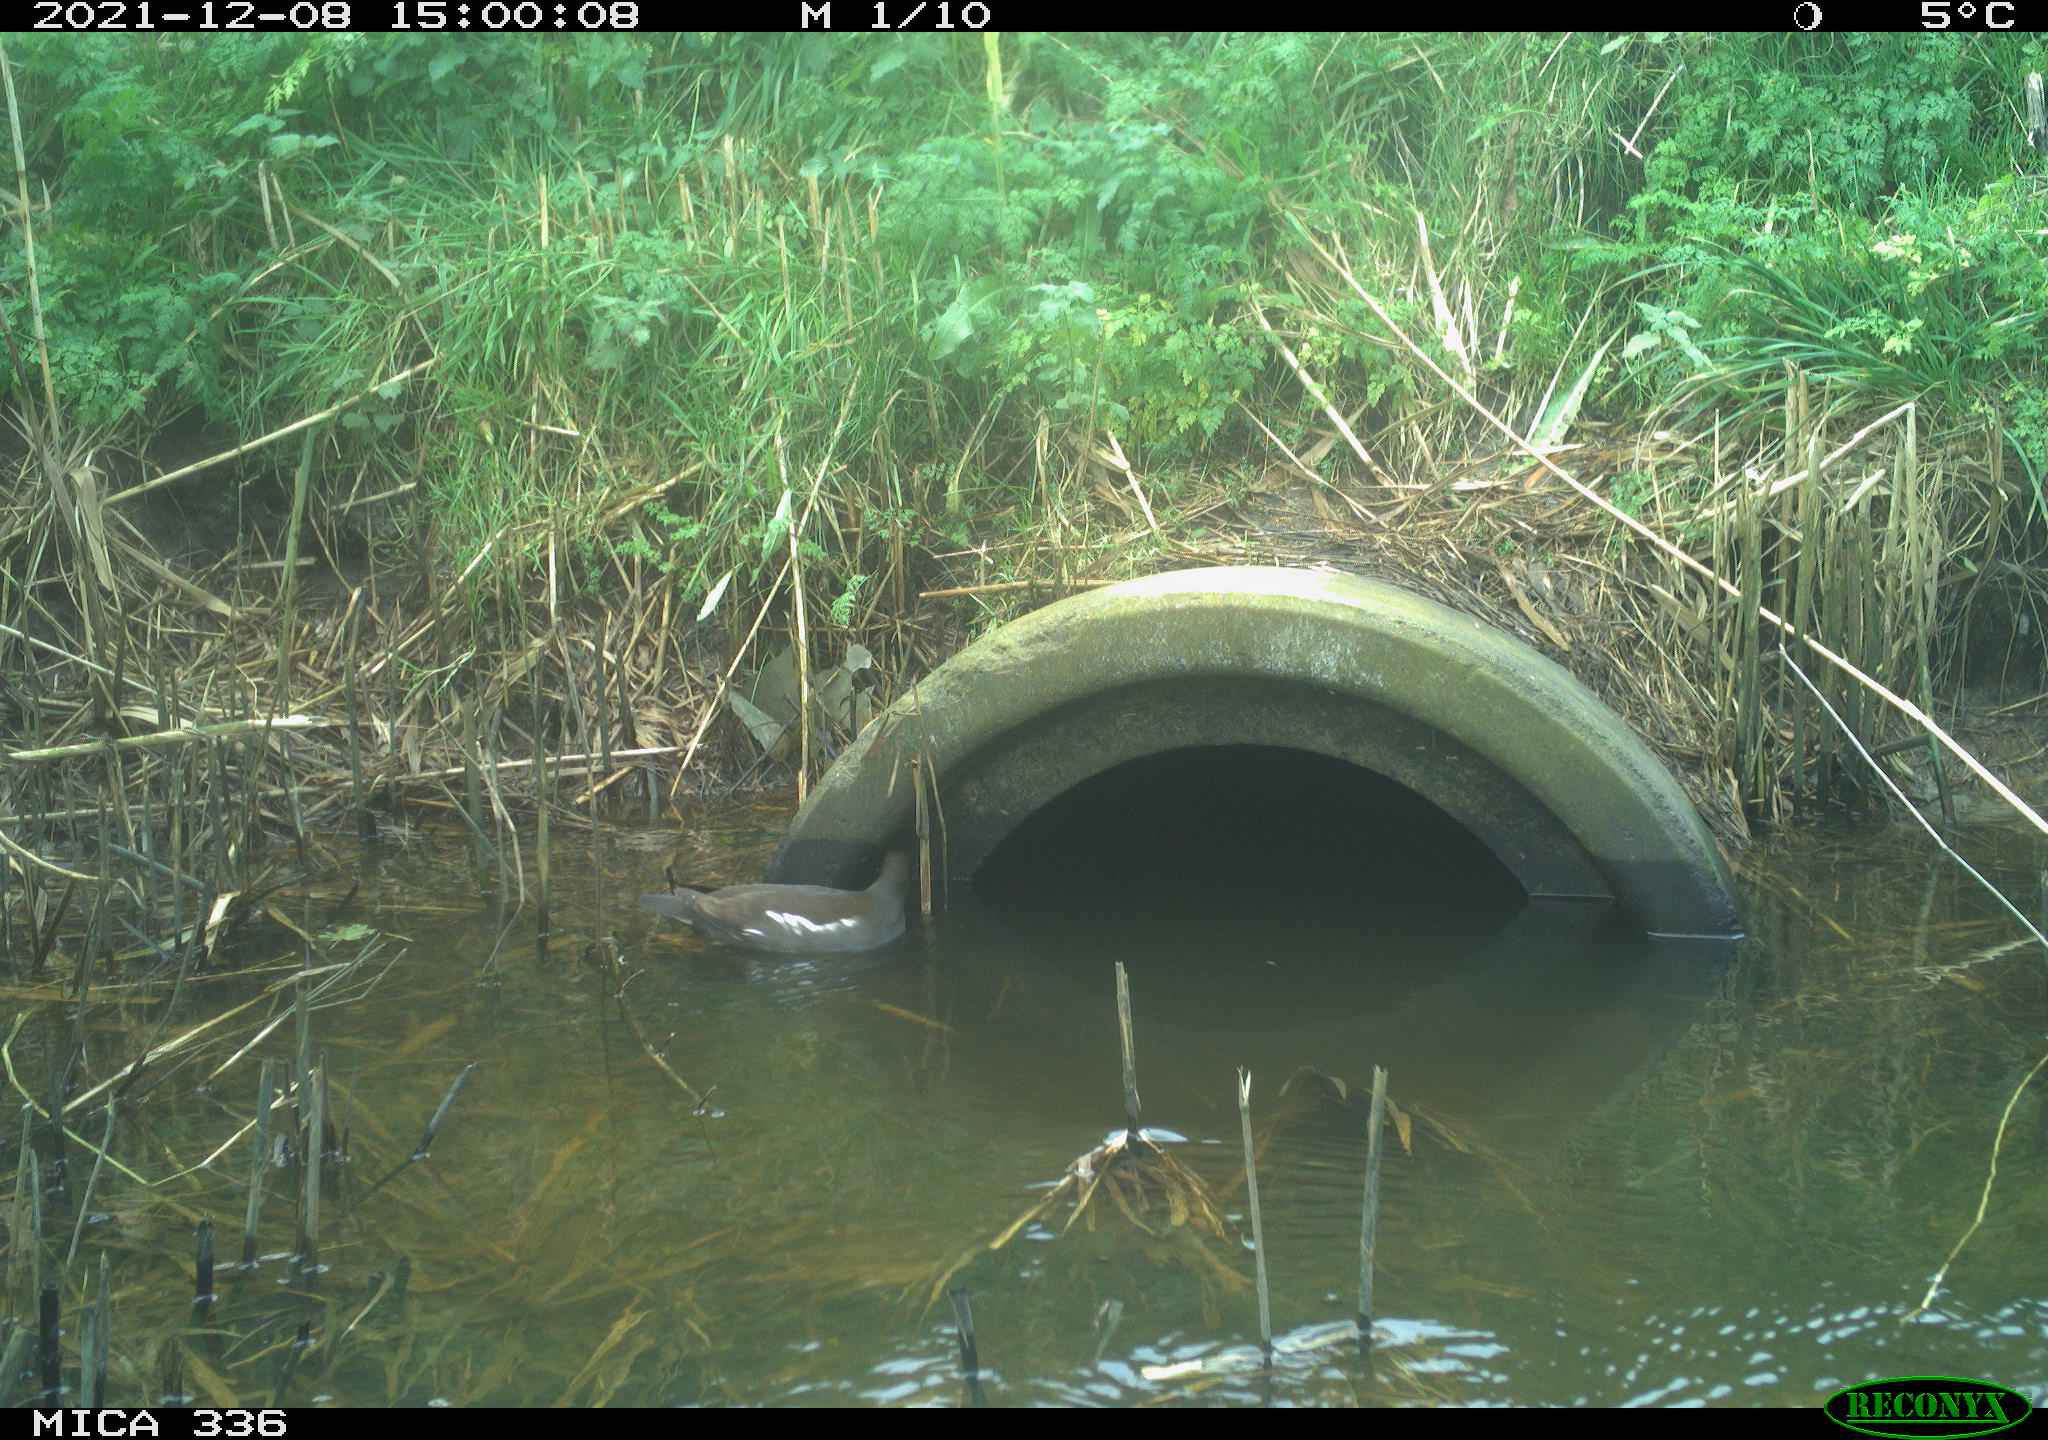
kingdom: Animalia
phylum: Chordata
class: Aves
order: Gruiformes
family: Rallidae
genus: Gallinula
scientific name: Gallinula chloropus
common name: Common moorhen
